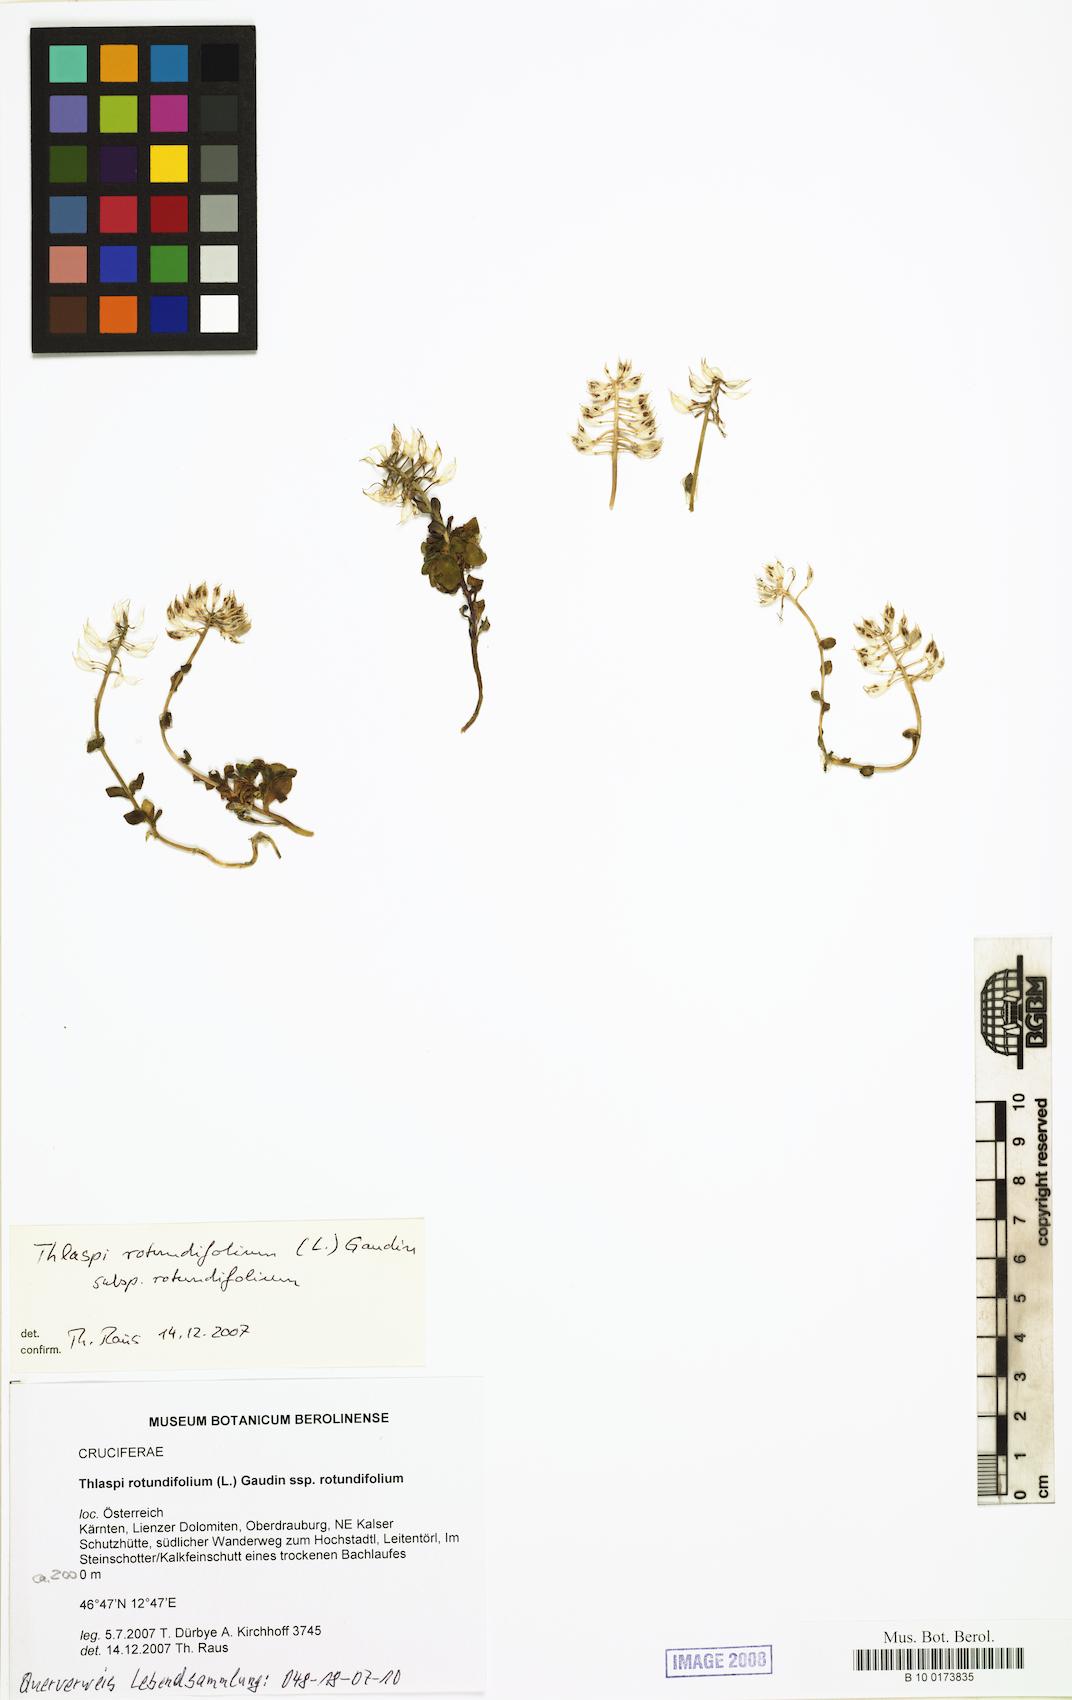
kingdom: Plantae
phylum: Tracheophyta
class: Magnoliopsida
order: Brassicales
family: Brassicaceae
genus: Noccaea
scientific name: Noccaea rotundifolia
